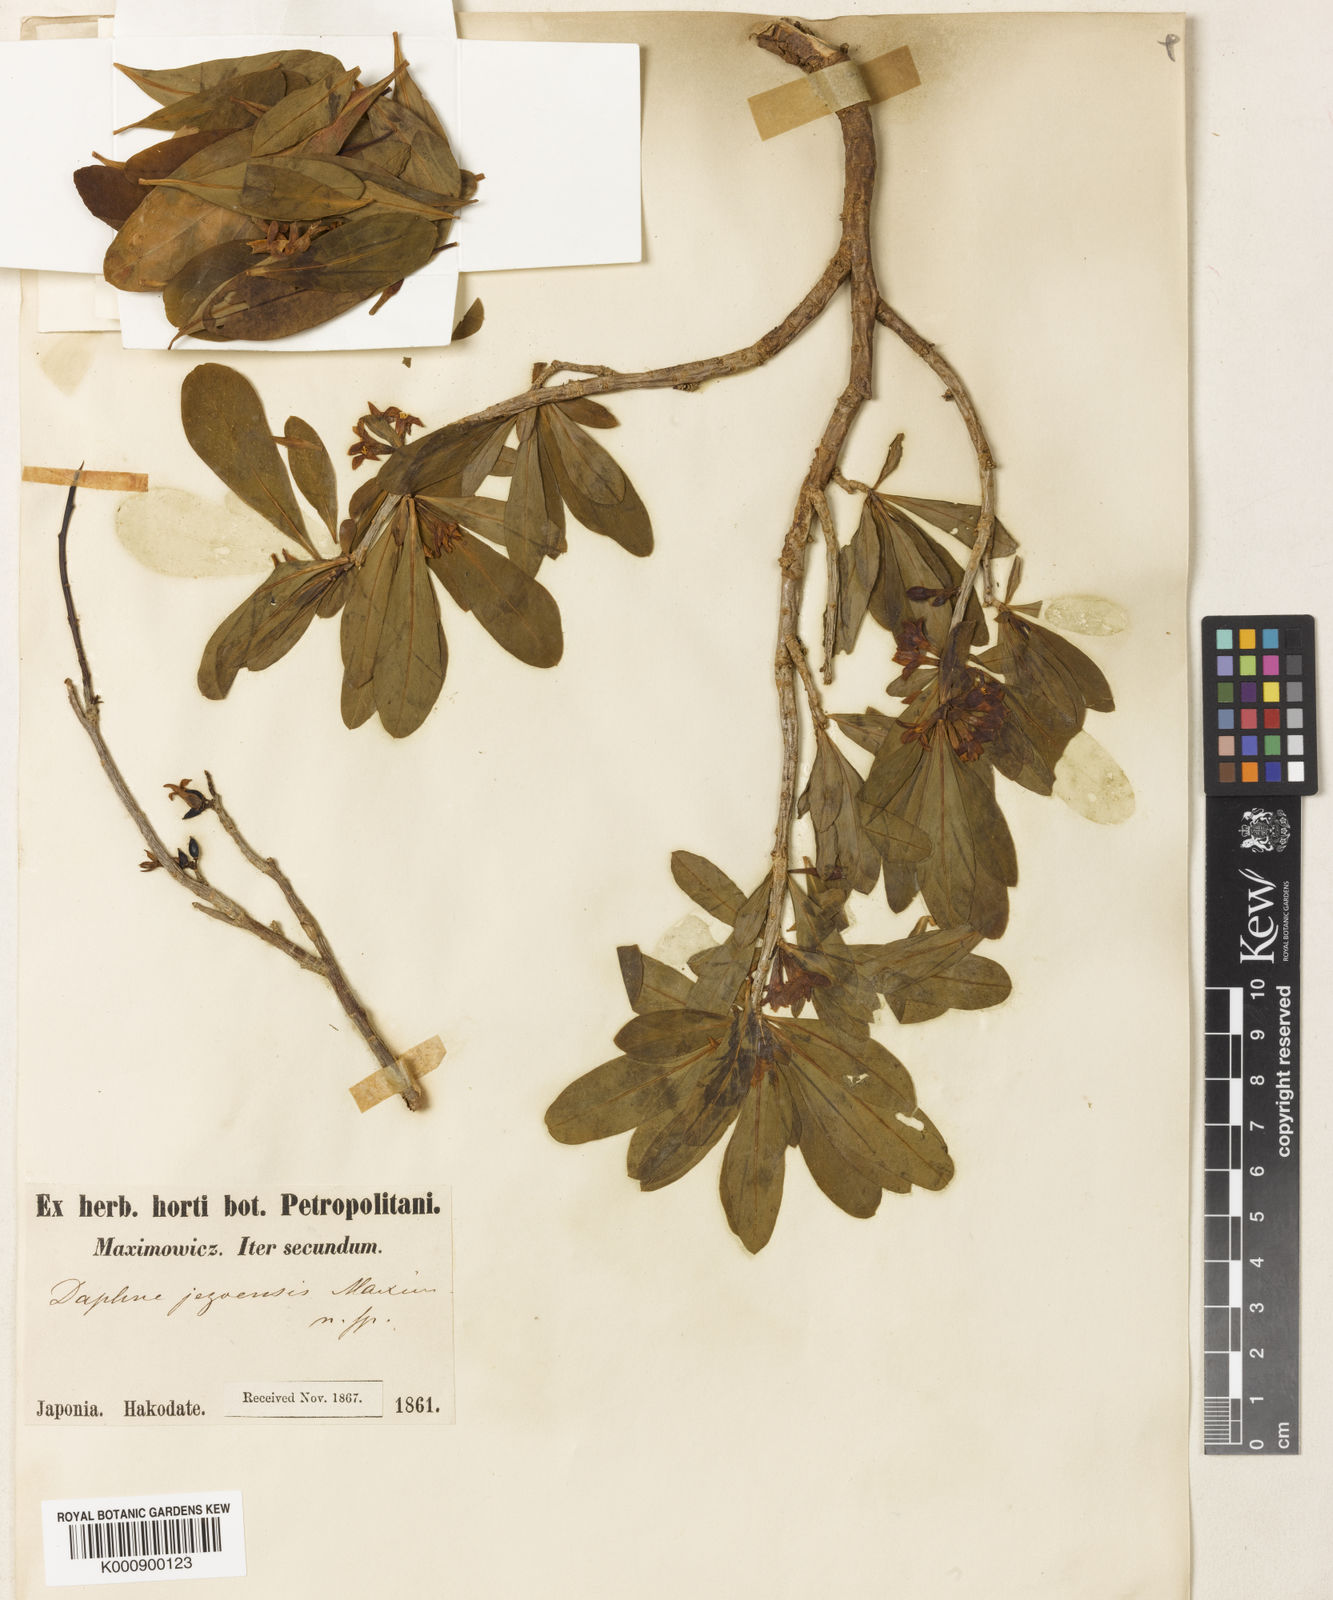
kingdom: Plantae
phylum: Tracheophyta
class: Magnoliopsida
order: Malvales
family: Thymelaeaceae
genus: Daphne
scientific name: Daphne jezoensis
